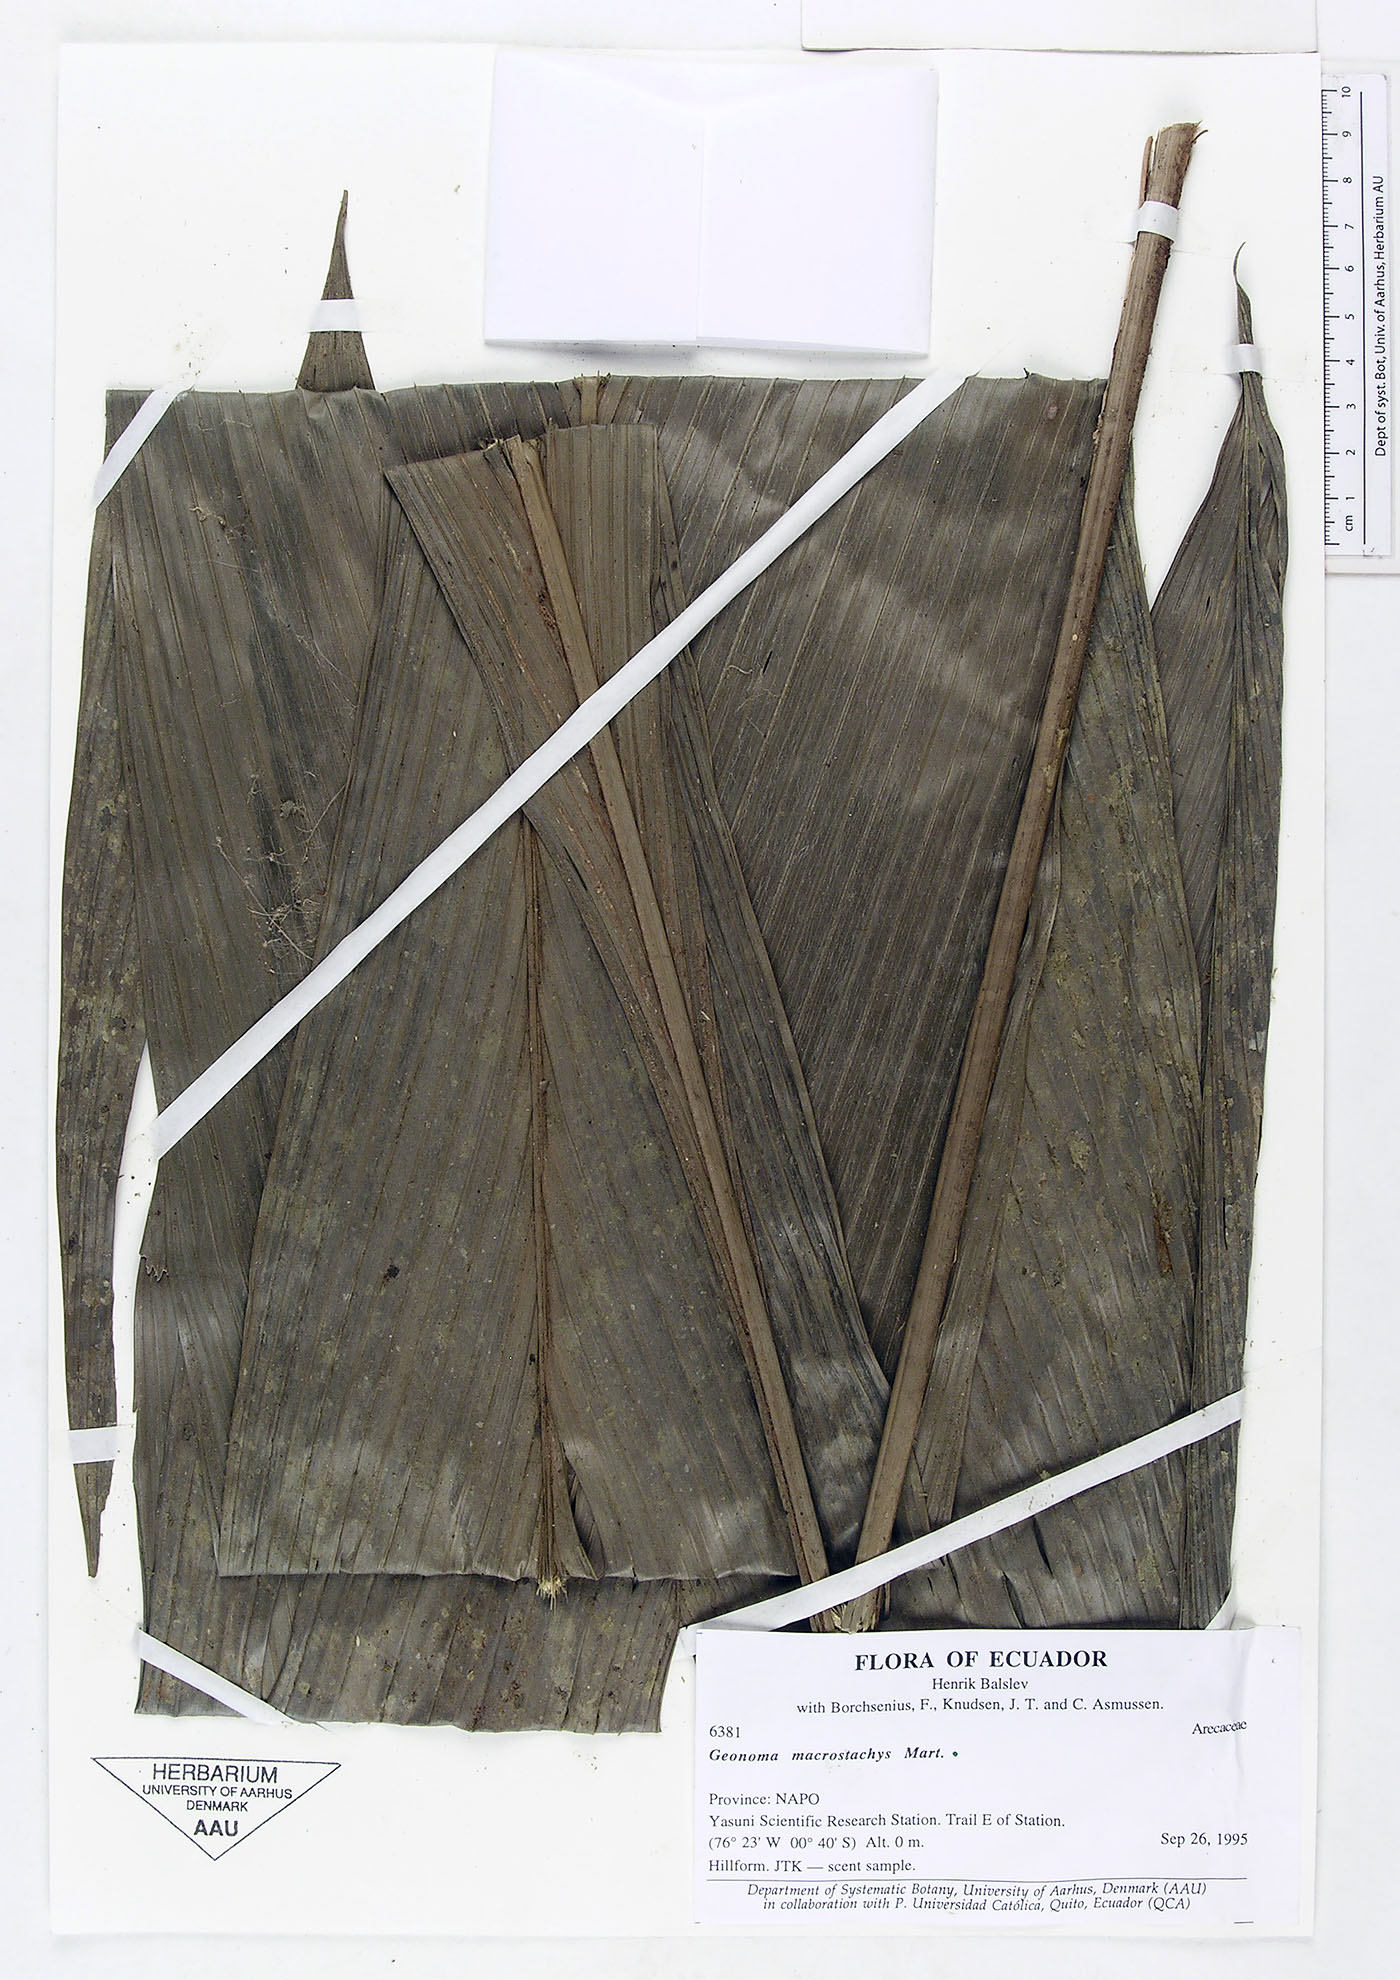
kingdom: Plantae
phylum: Tracheophyta
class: Liliopsida
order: Arecales
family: Arecaceae
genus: Geonoma
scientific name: Geonoma macrostachys
